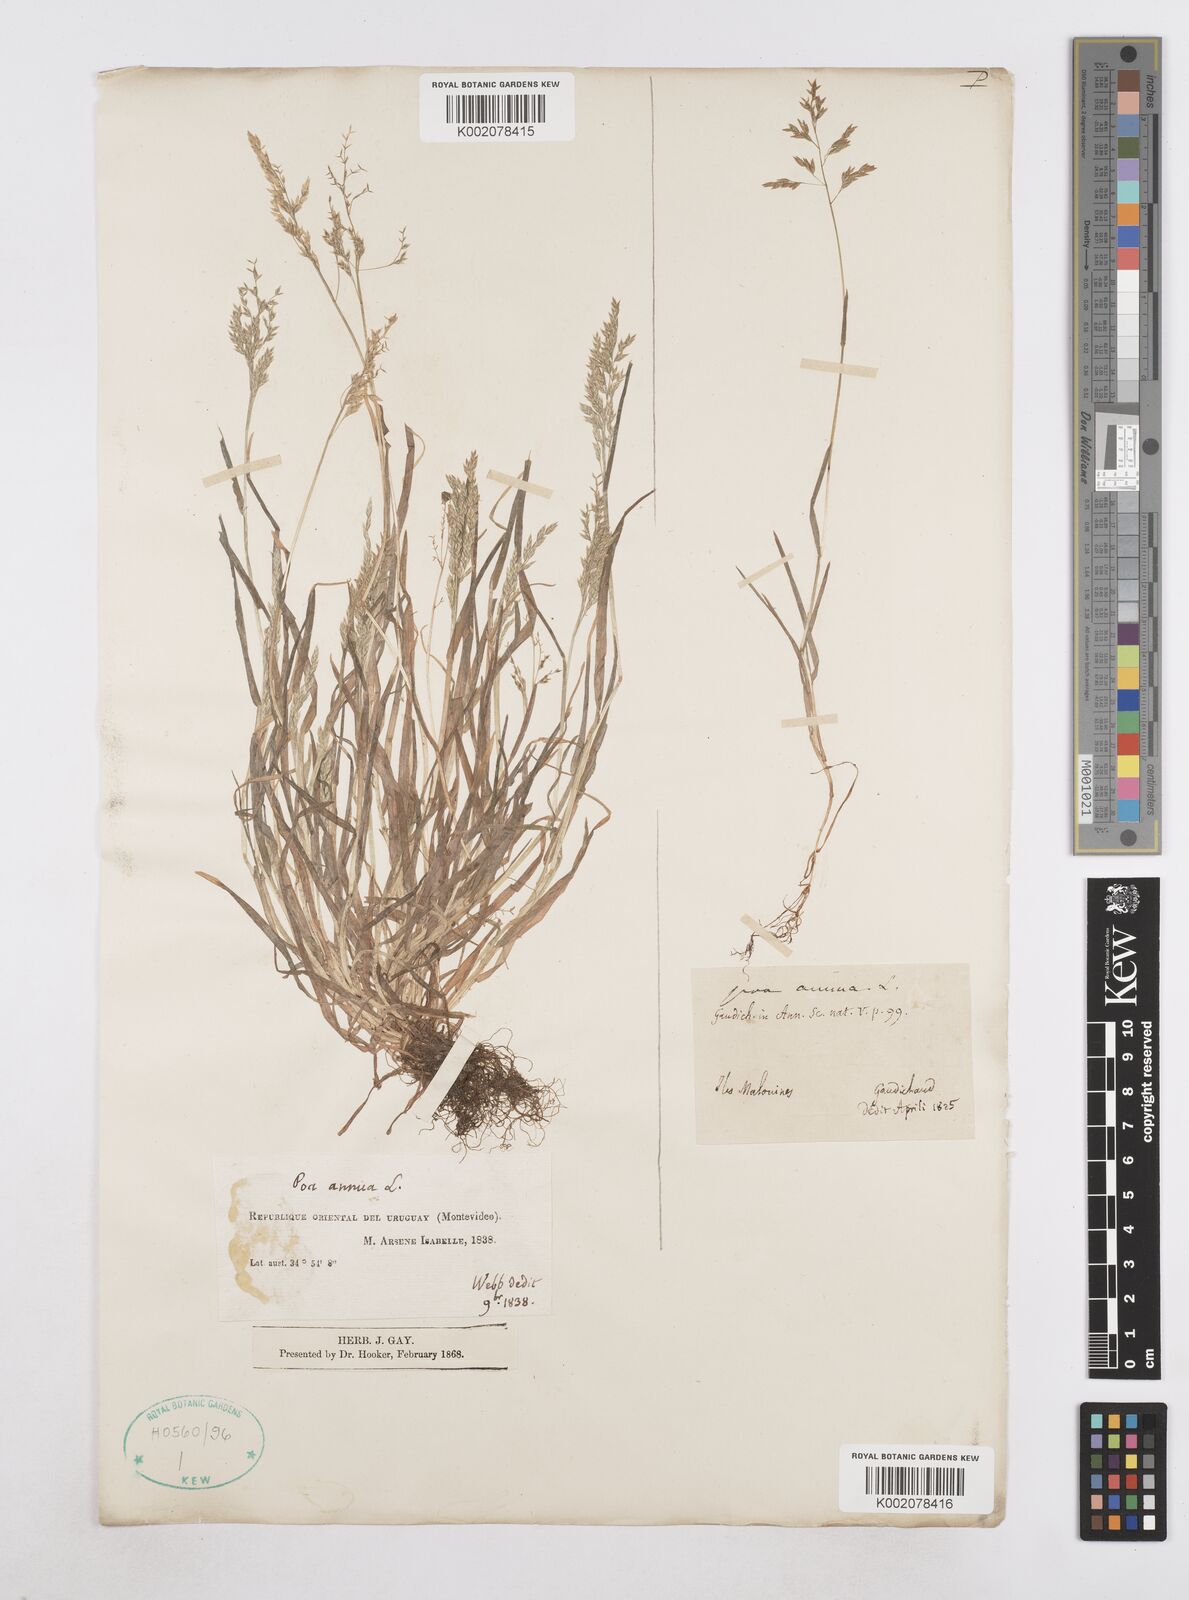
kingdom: Plantae
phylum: Tracheophyta
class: Liliopsida
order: Poales
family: Poaceae
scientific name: Poaceae
